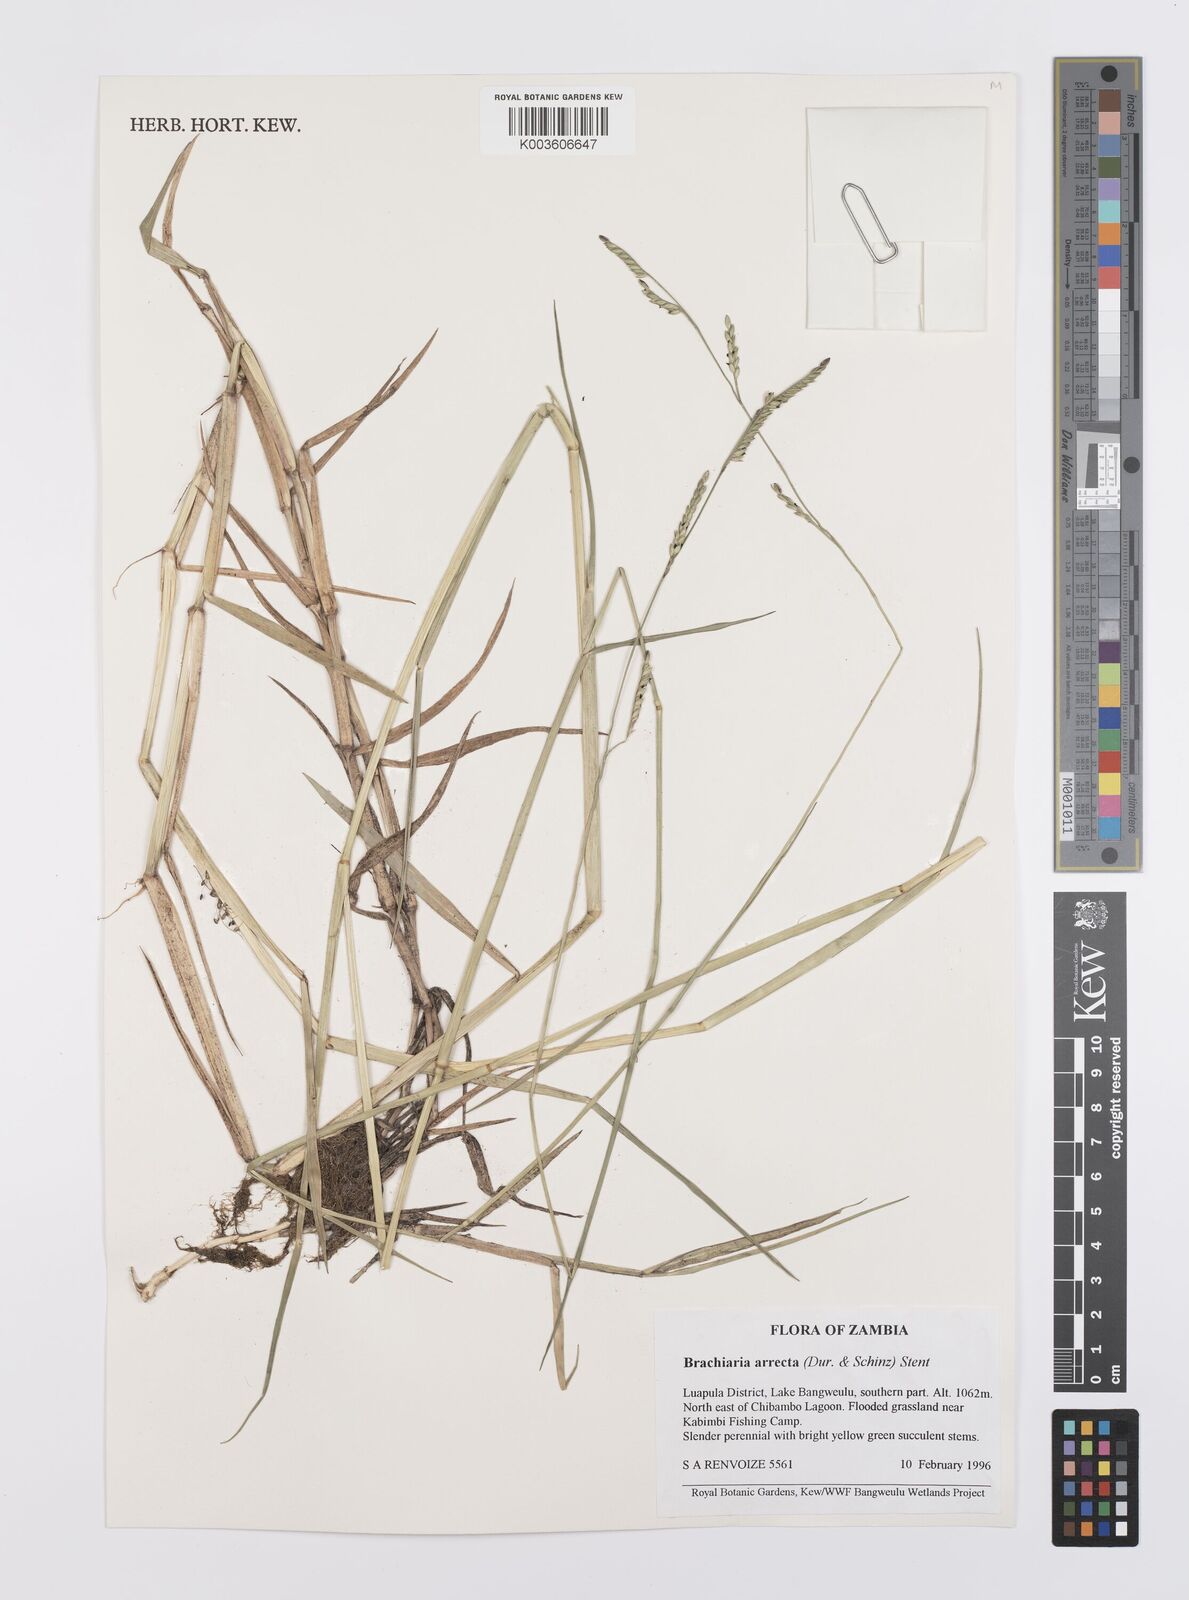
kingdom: Plantae
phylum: Tracheophyta
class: Liliopsida
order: Poales
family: Poaceae
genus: Urochloa
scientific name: Urochloa arrecta
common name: African signalgrass
